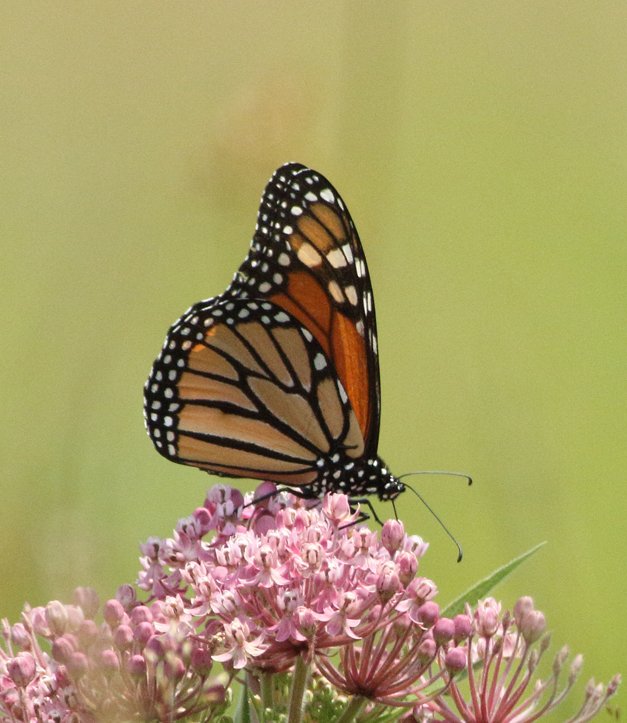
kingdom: Animalia
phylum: Arthropoda
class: Insecta
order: Lepidoptera
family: Nymphalidae
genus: Danaus
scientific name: Danaus plexippus
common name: Monarch
